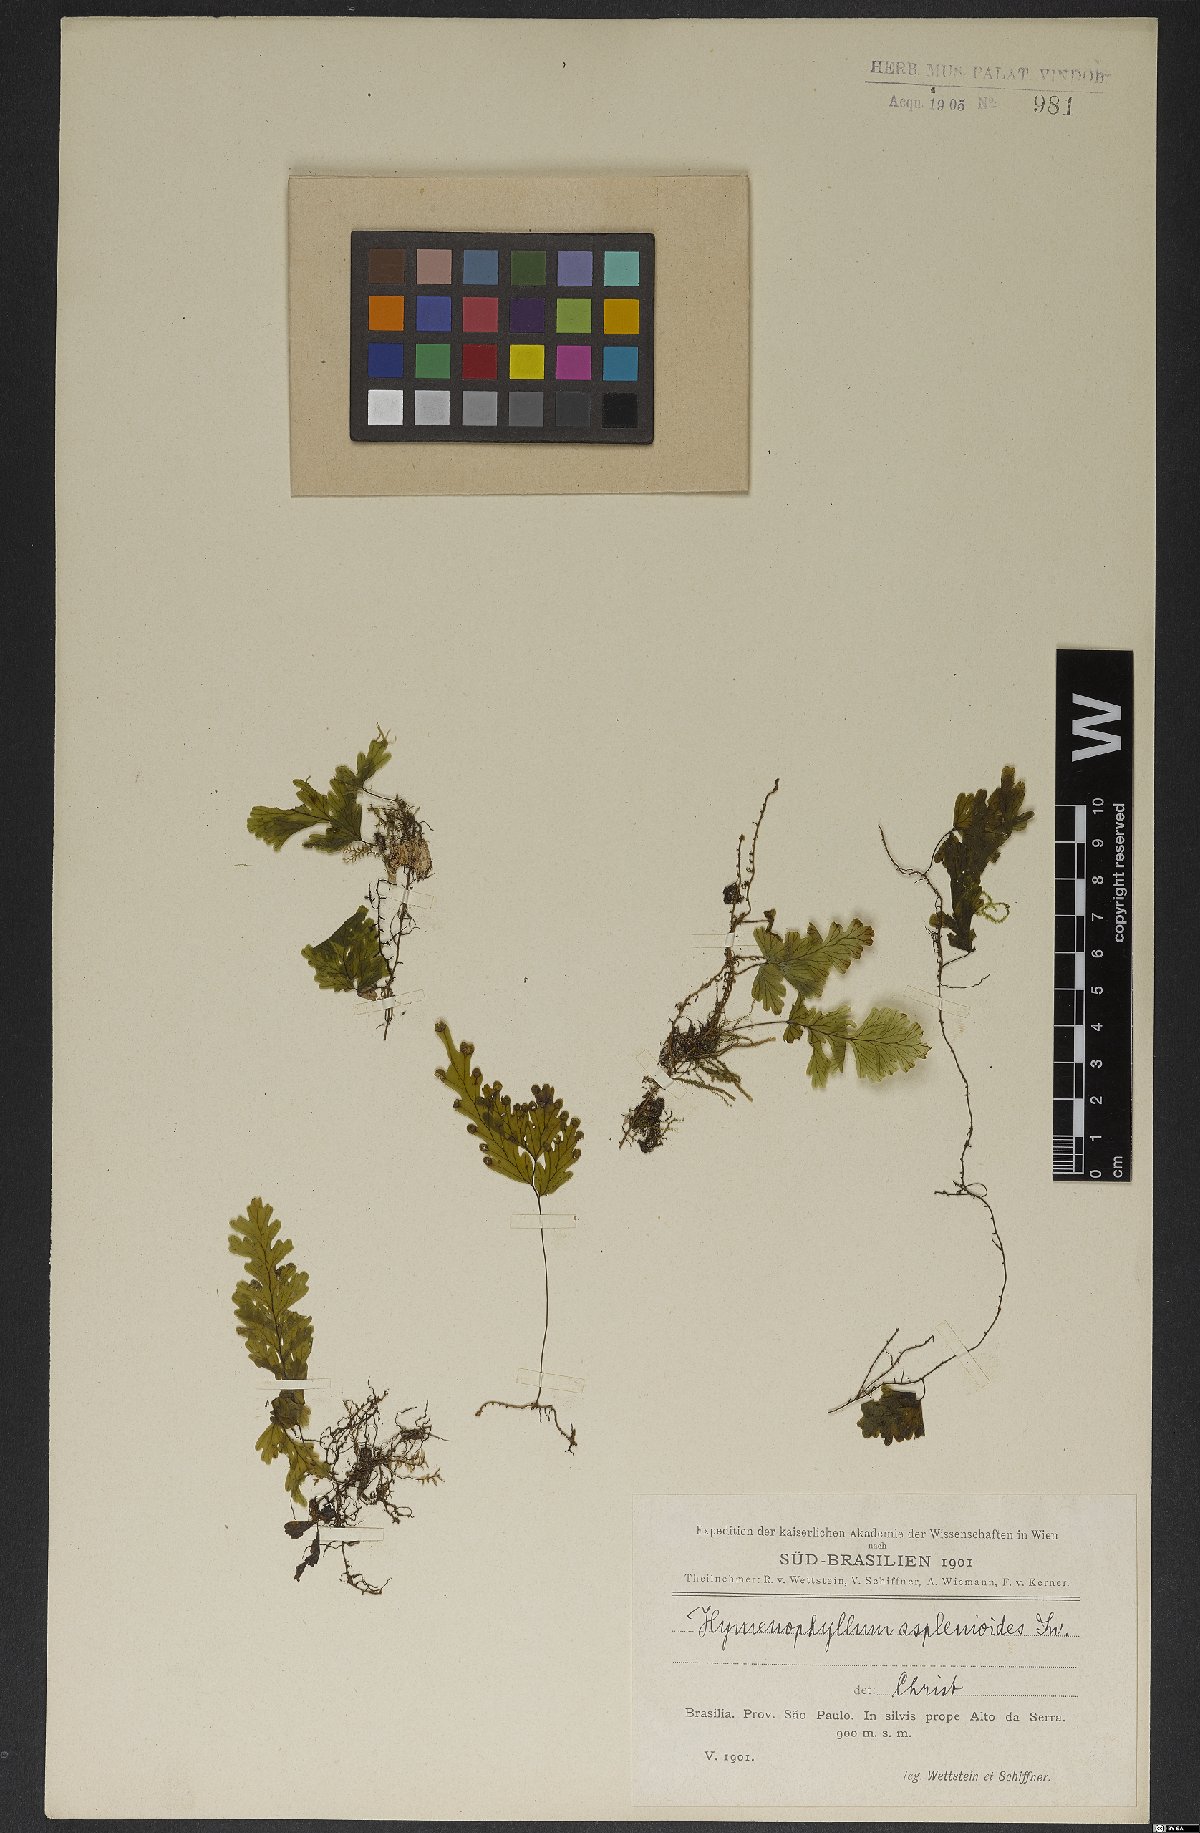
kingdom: Plantae
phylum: Tracheophyta
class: Polypodiopsida
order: Hymenophyllales
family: Hymenophyllaceae
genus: Hymenophyllum
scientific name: Hymenophyllum asplenioides
